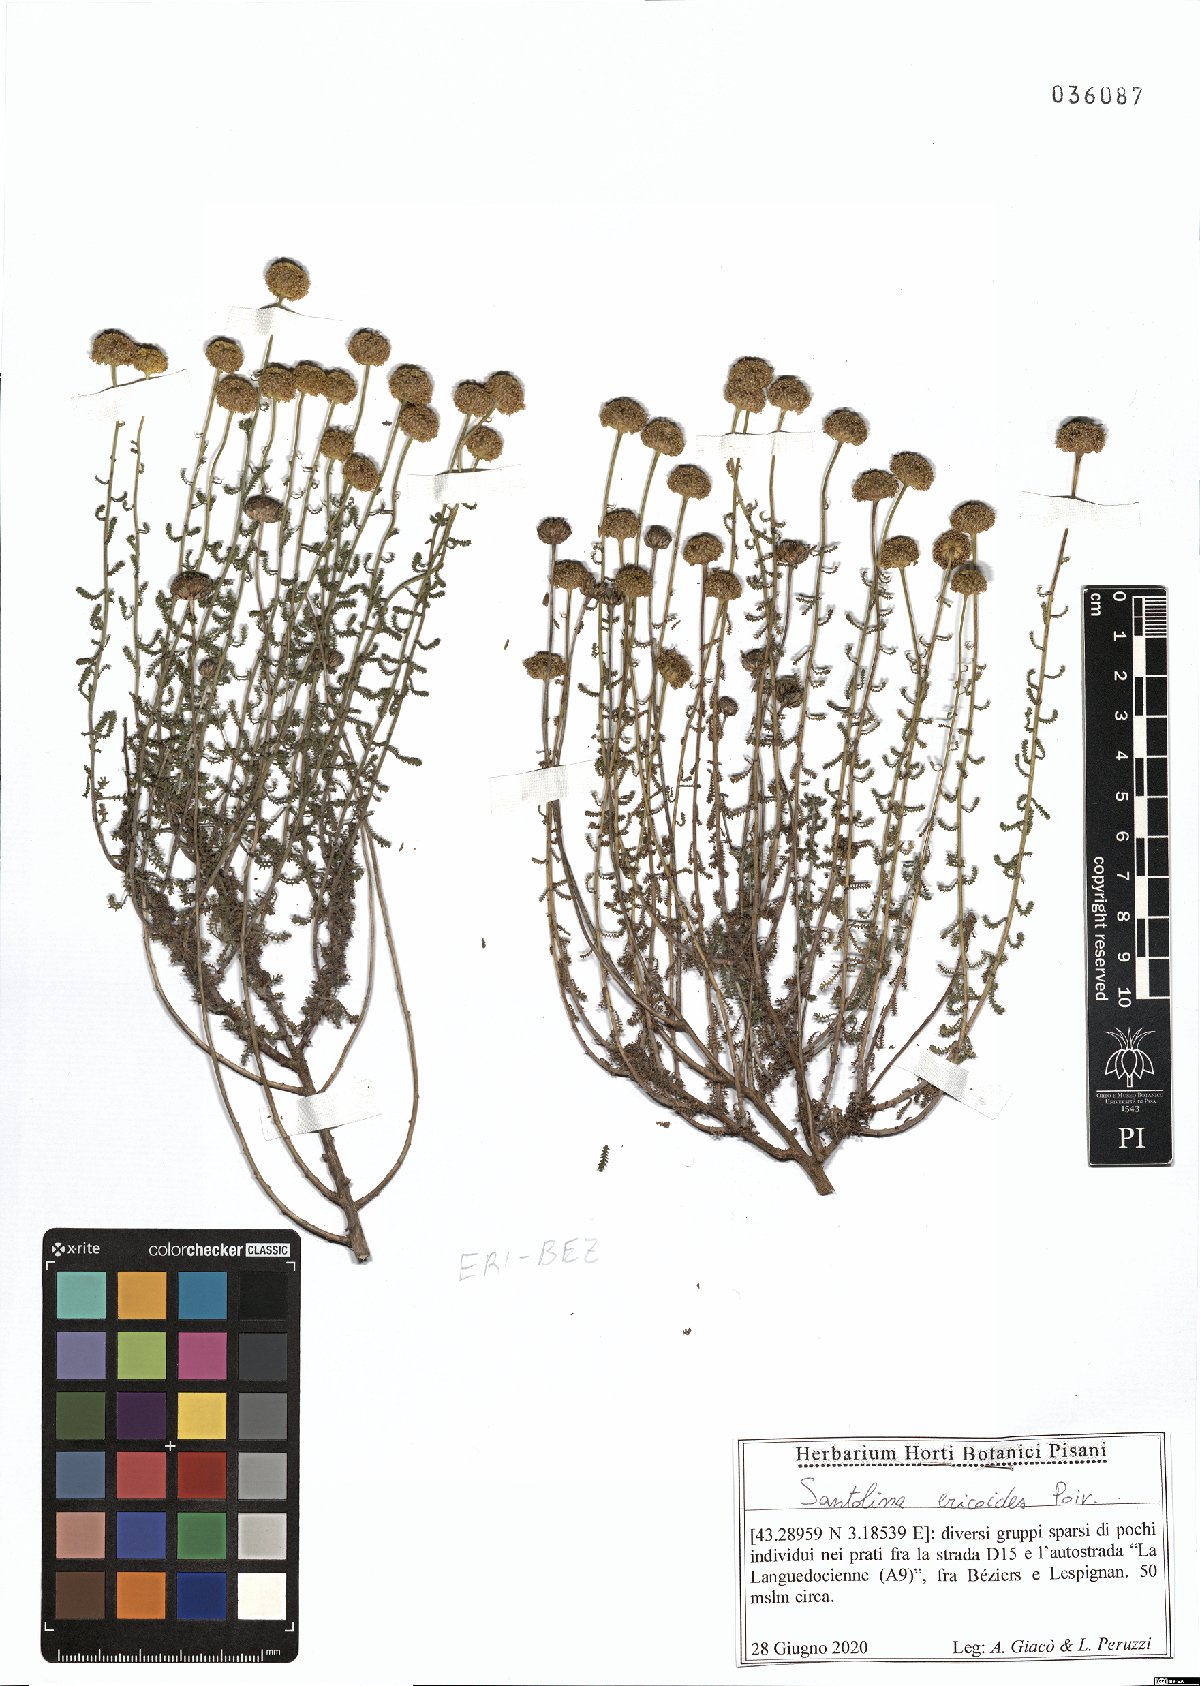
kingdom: Plantae
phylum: Tracheophyta
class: Magnoliopsida
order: Asterales
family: Asteraceae
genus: Santolina
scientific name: Santolina ericoides
